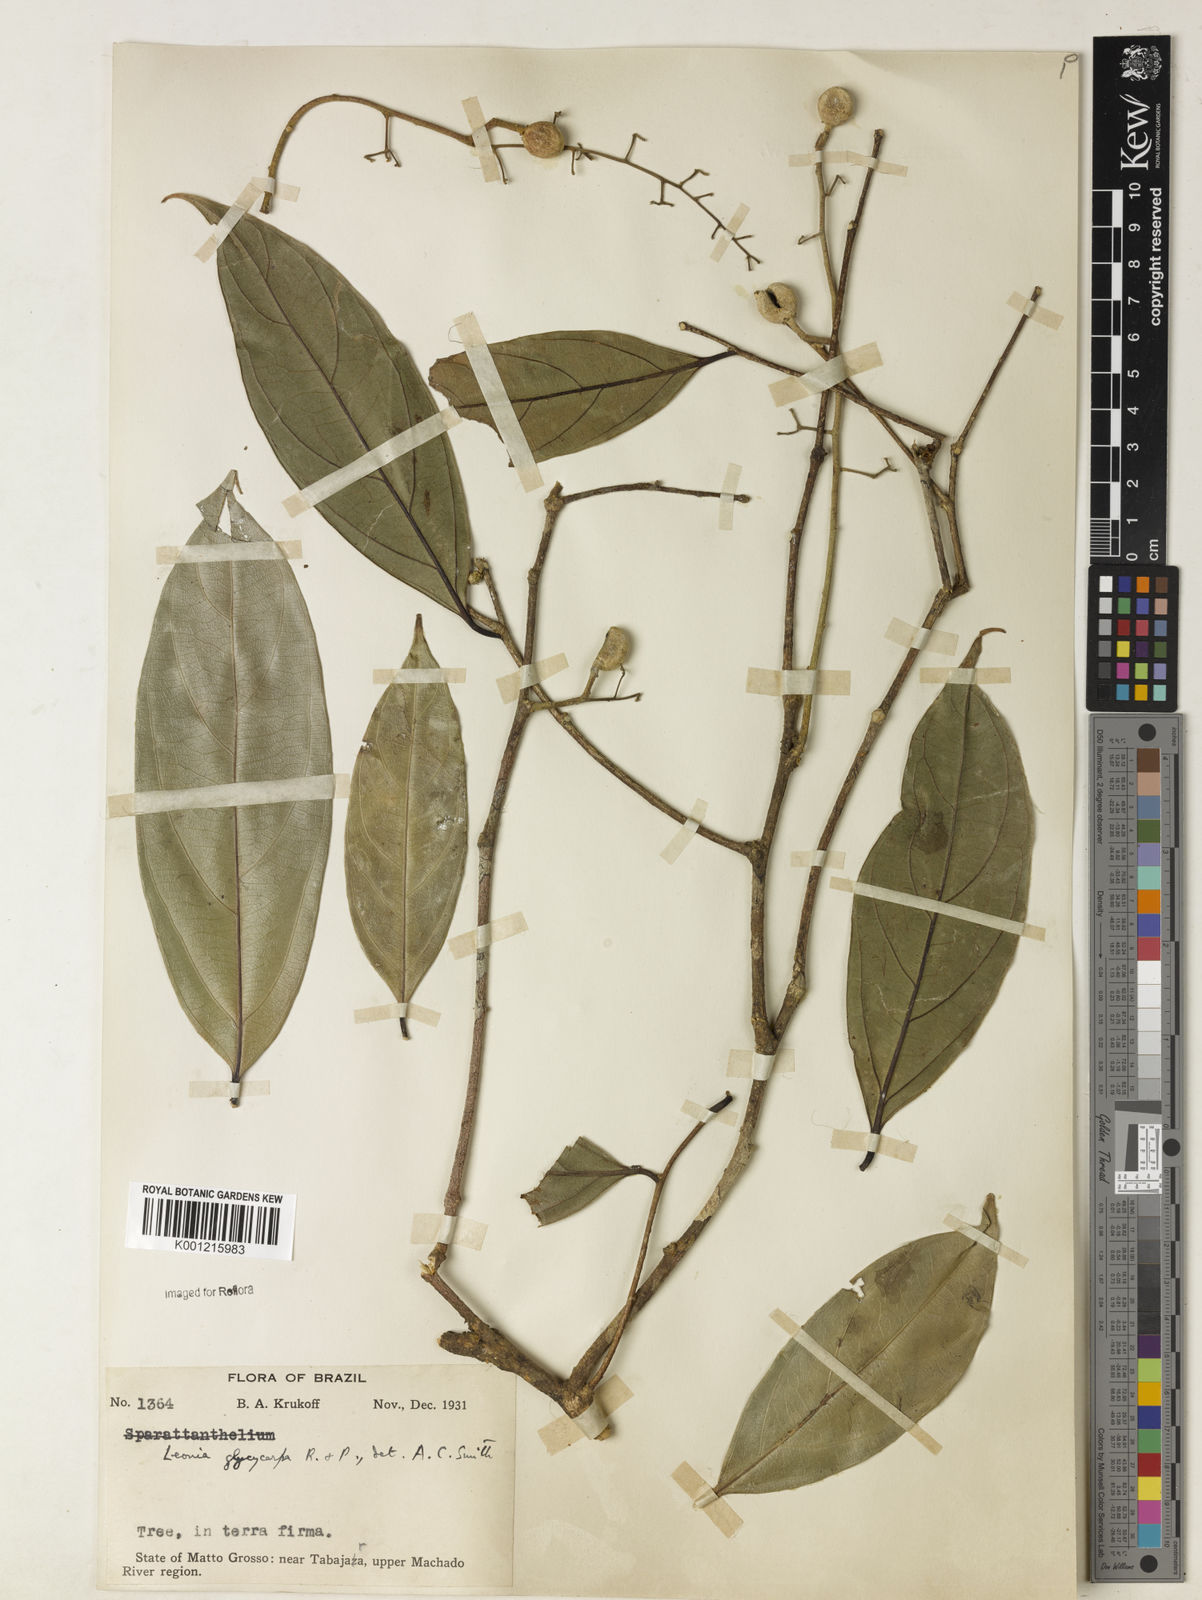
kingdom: Plantae
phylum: Tracheophyta
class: Magnoliopsida
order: Malpighiales
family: Violaceae
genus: Leonia
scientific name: Leonia glycycarpa
